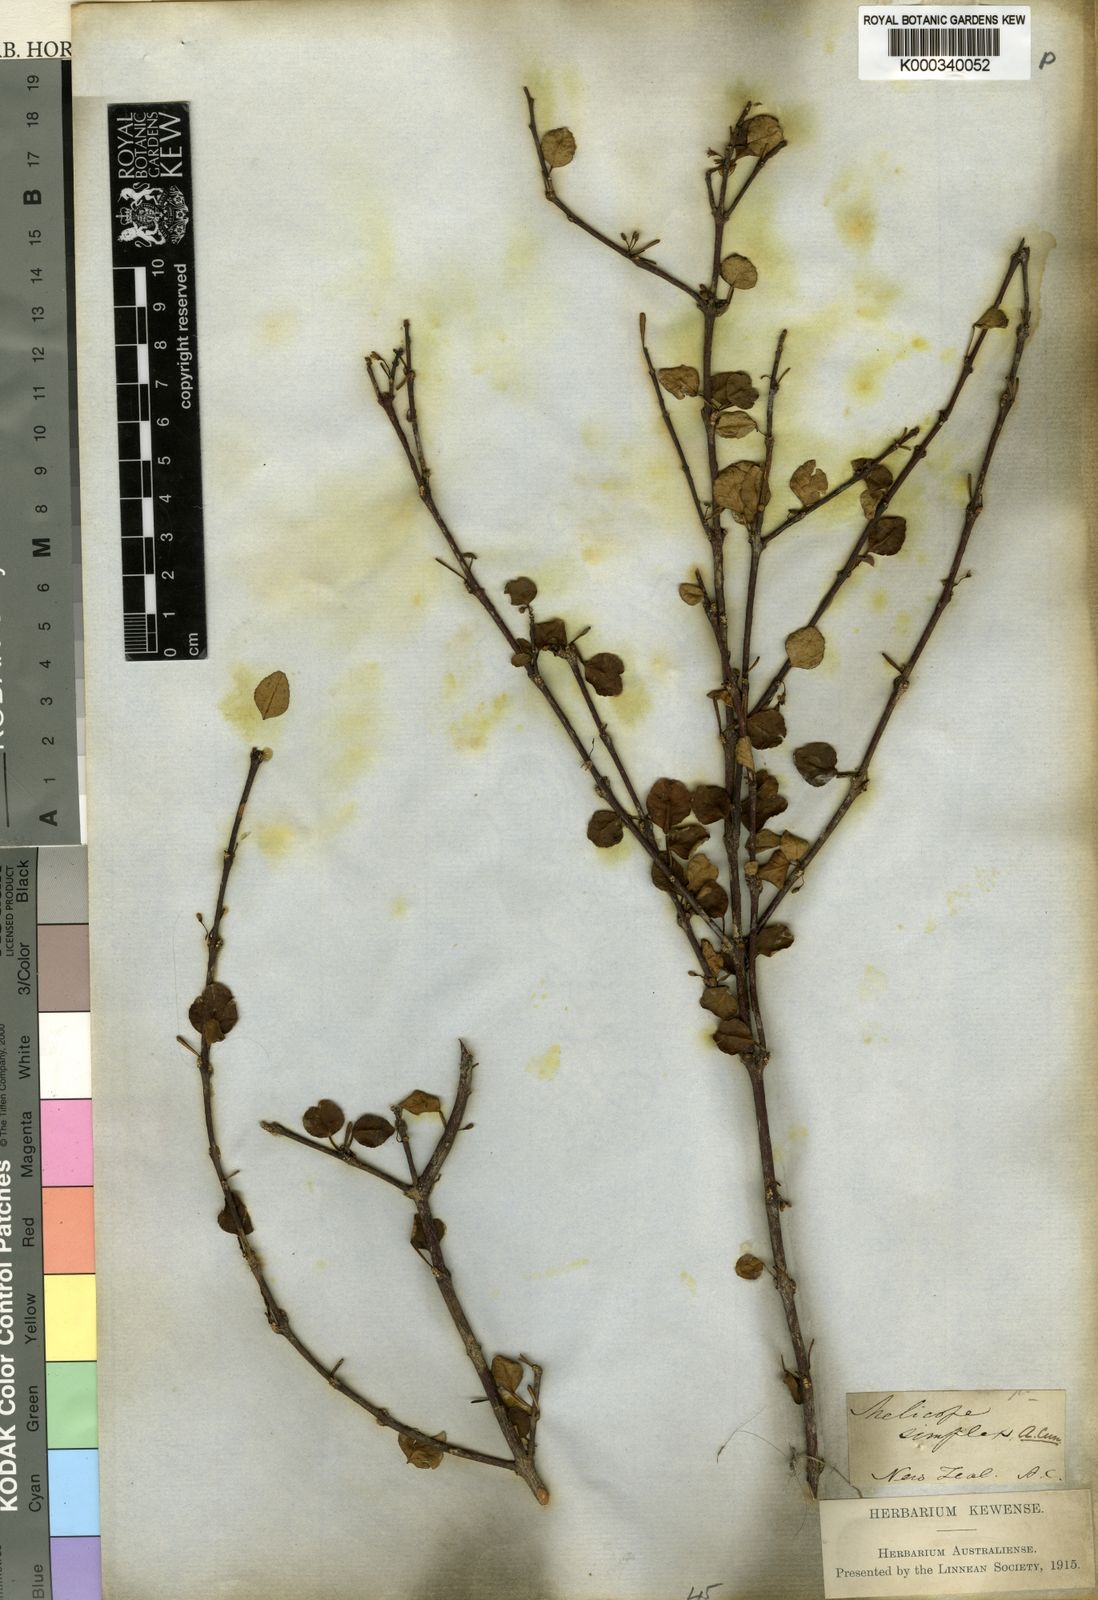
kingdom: Plantae
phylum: Tracheophyta
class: Magnoliopsida
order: Sapindales
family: Rutaceae
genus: Melicope
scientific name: Melicope simplex
